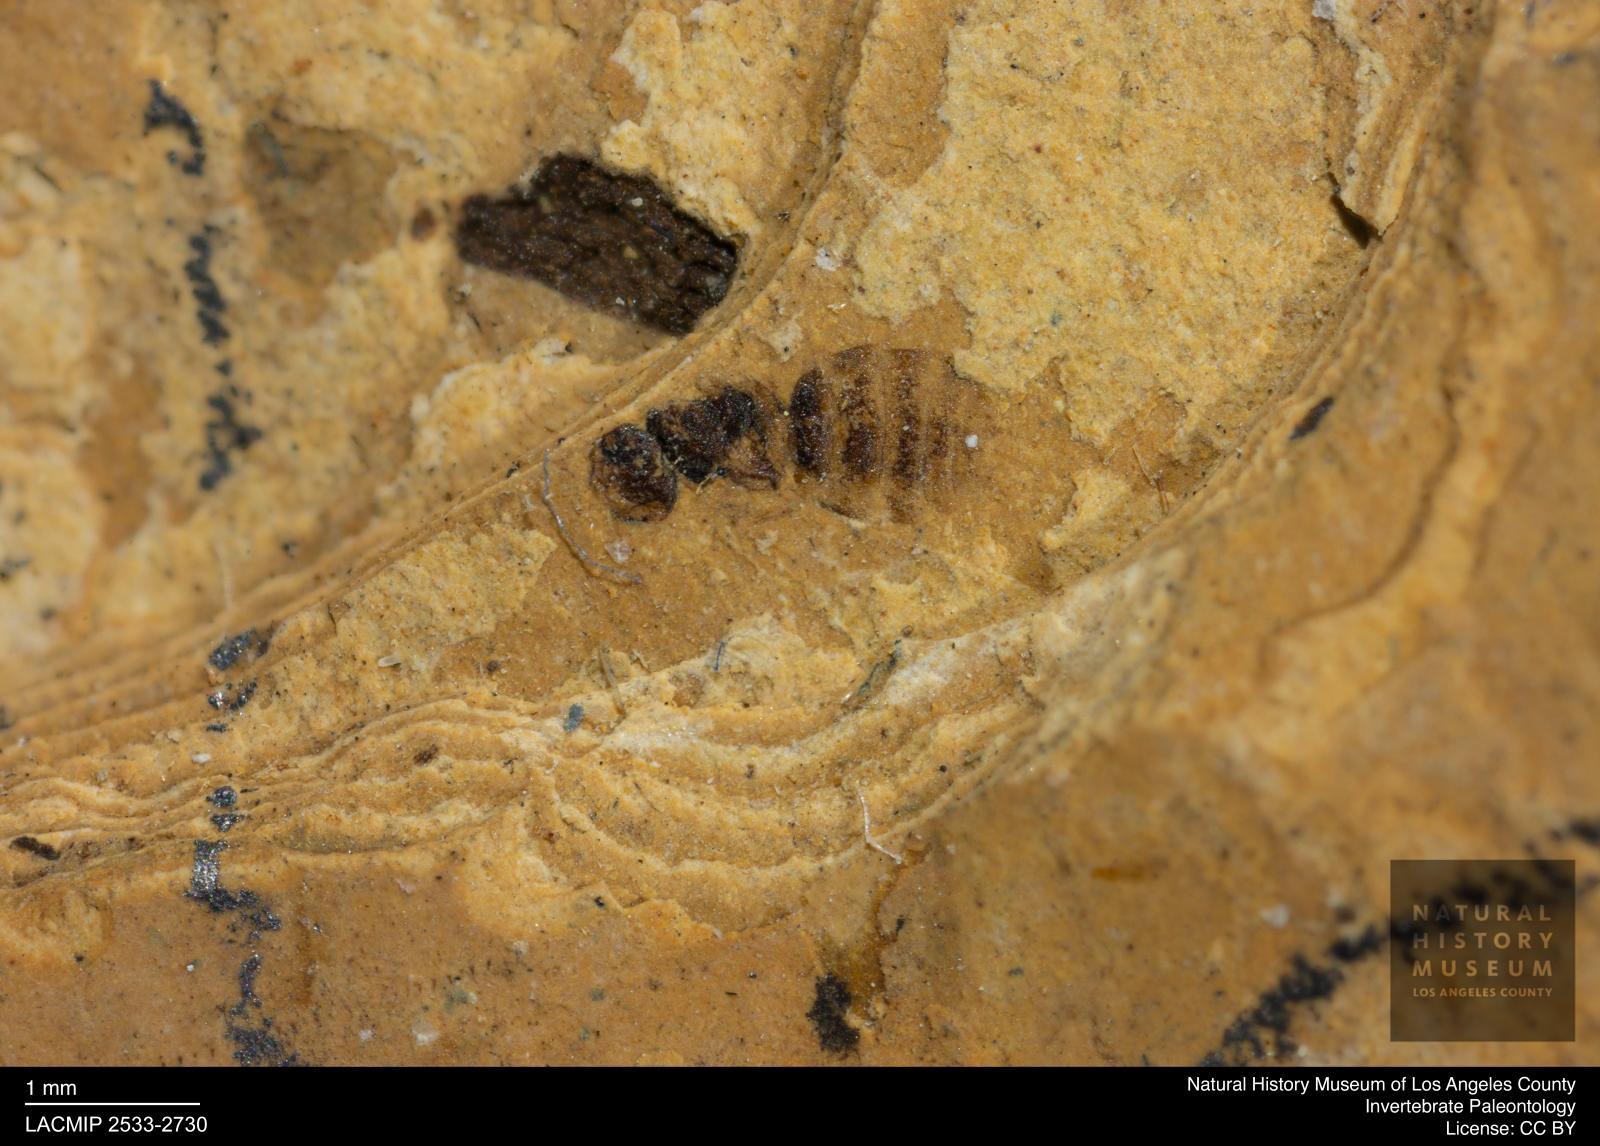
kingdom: Animalia
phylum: Arthropoda
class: Insecta
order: Hymenoptera
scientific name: Hymenoptera
